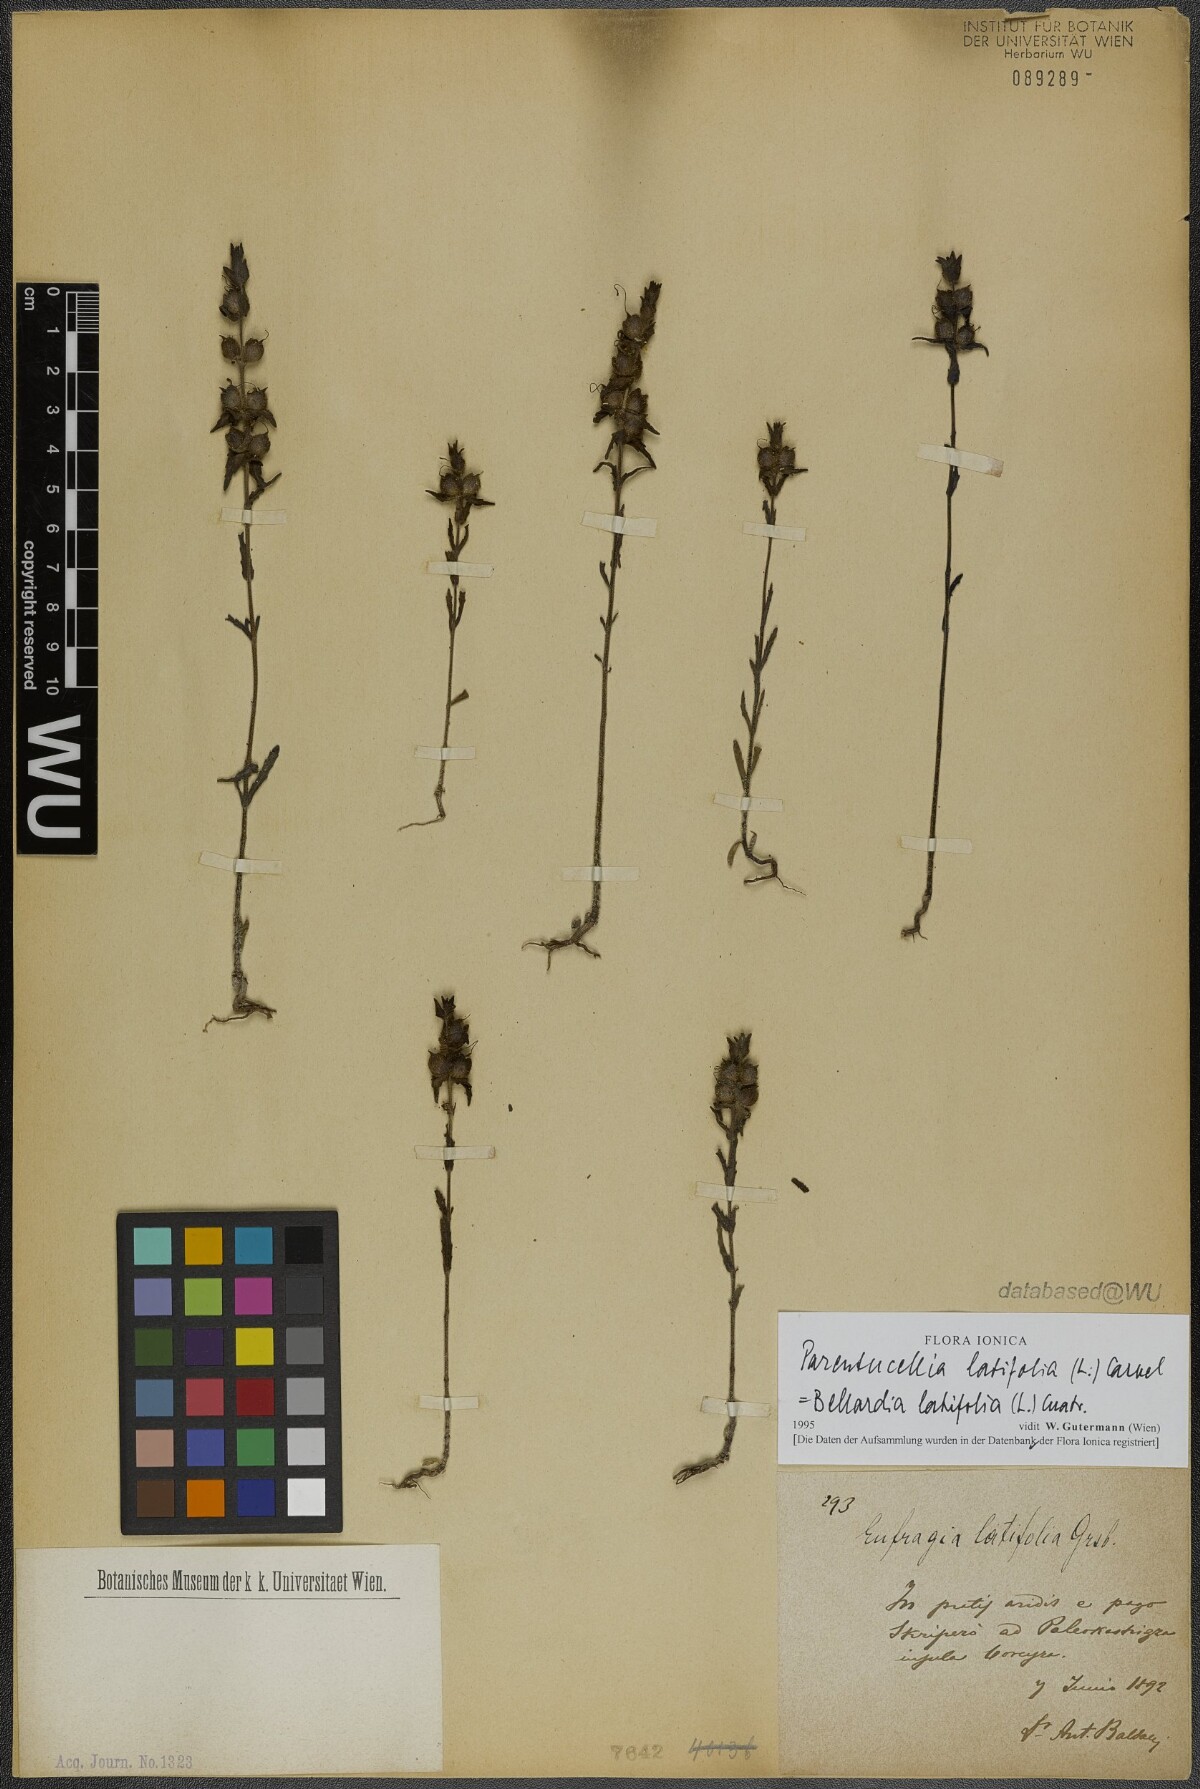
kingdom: Plantae
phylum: Tracheophyta
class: Magnoliopsida
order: Lamiales
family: Orobanchaceae
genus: Parentucellia
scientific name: Parentucellia latifolia
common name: Broadleaf glandweed
